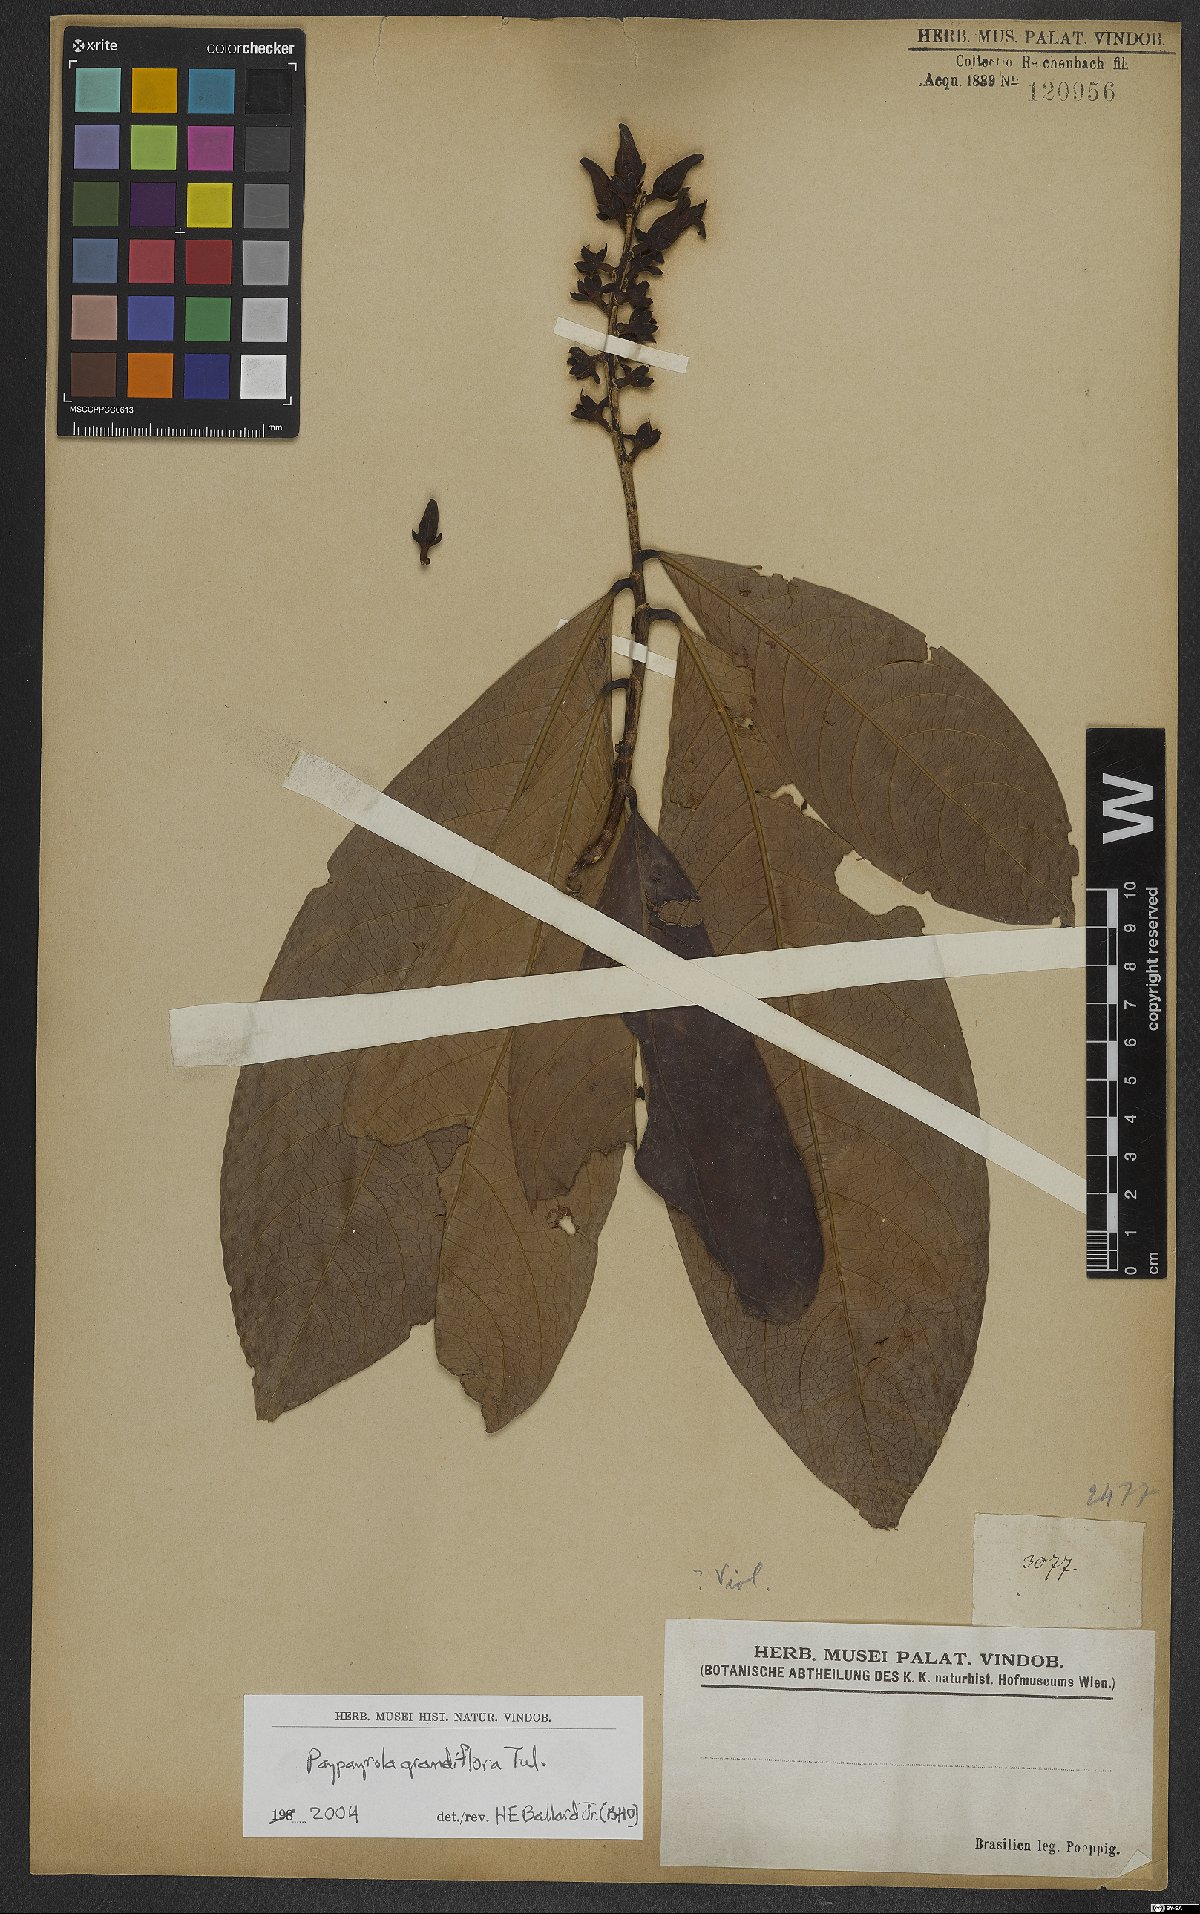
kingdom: Plantae
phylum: Tracheophyta
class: Magnoliopsida
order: Malpighiales
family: Violaceae
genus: Paypayrola
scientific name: Paypayrola grandiflora
